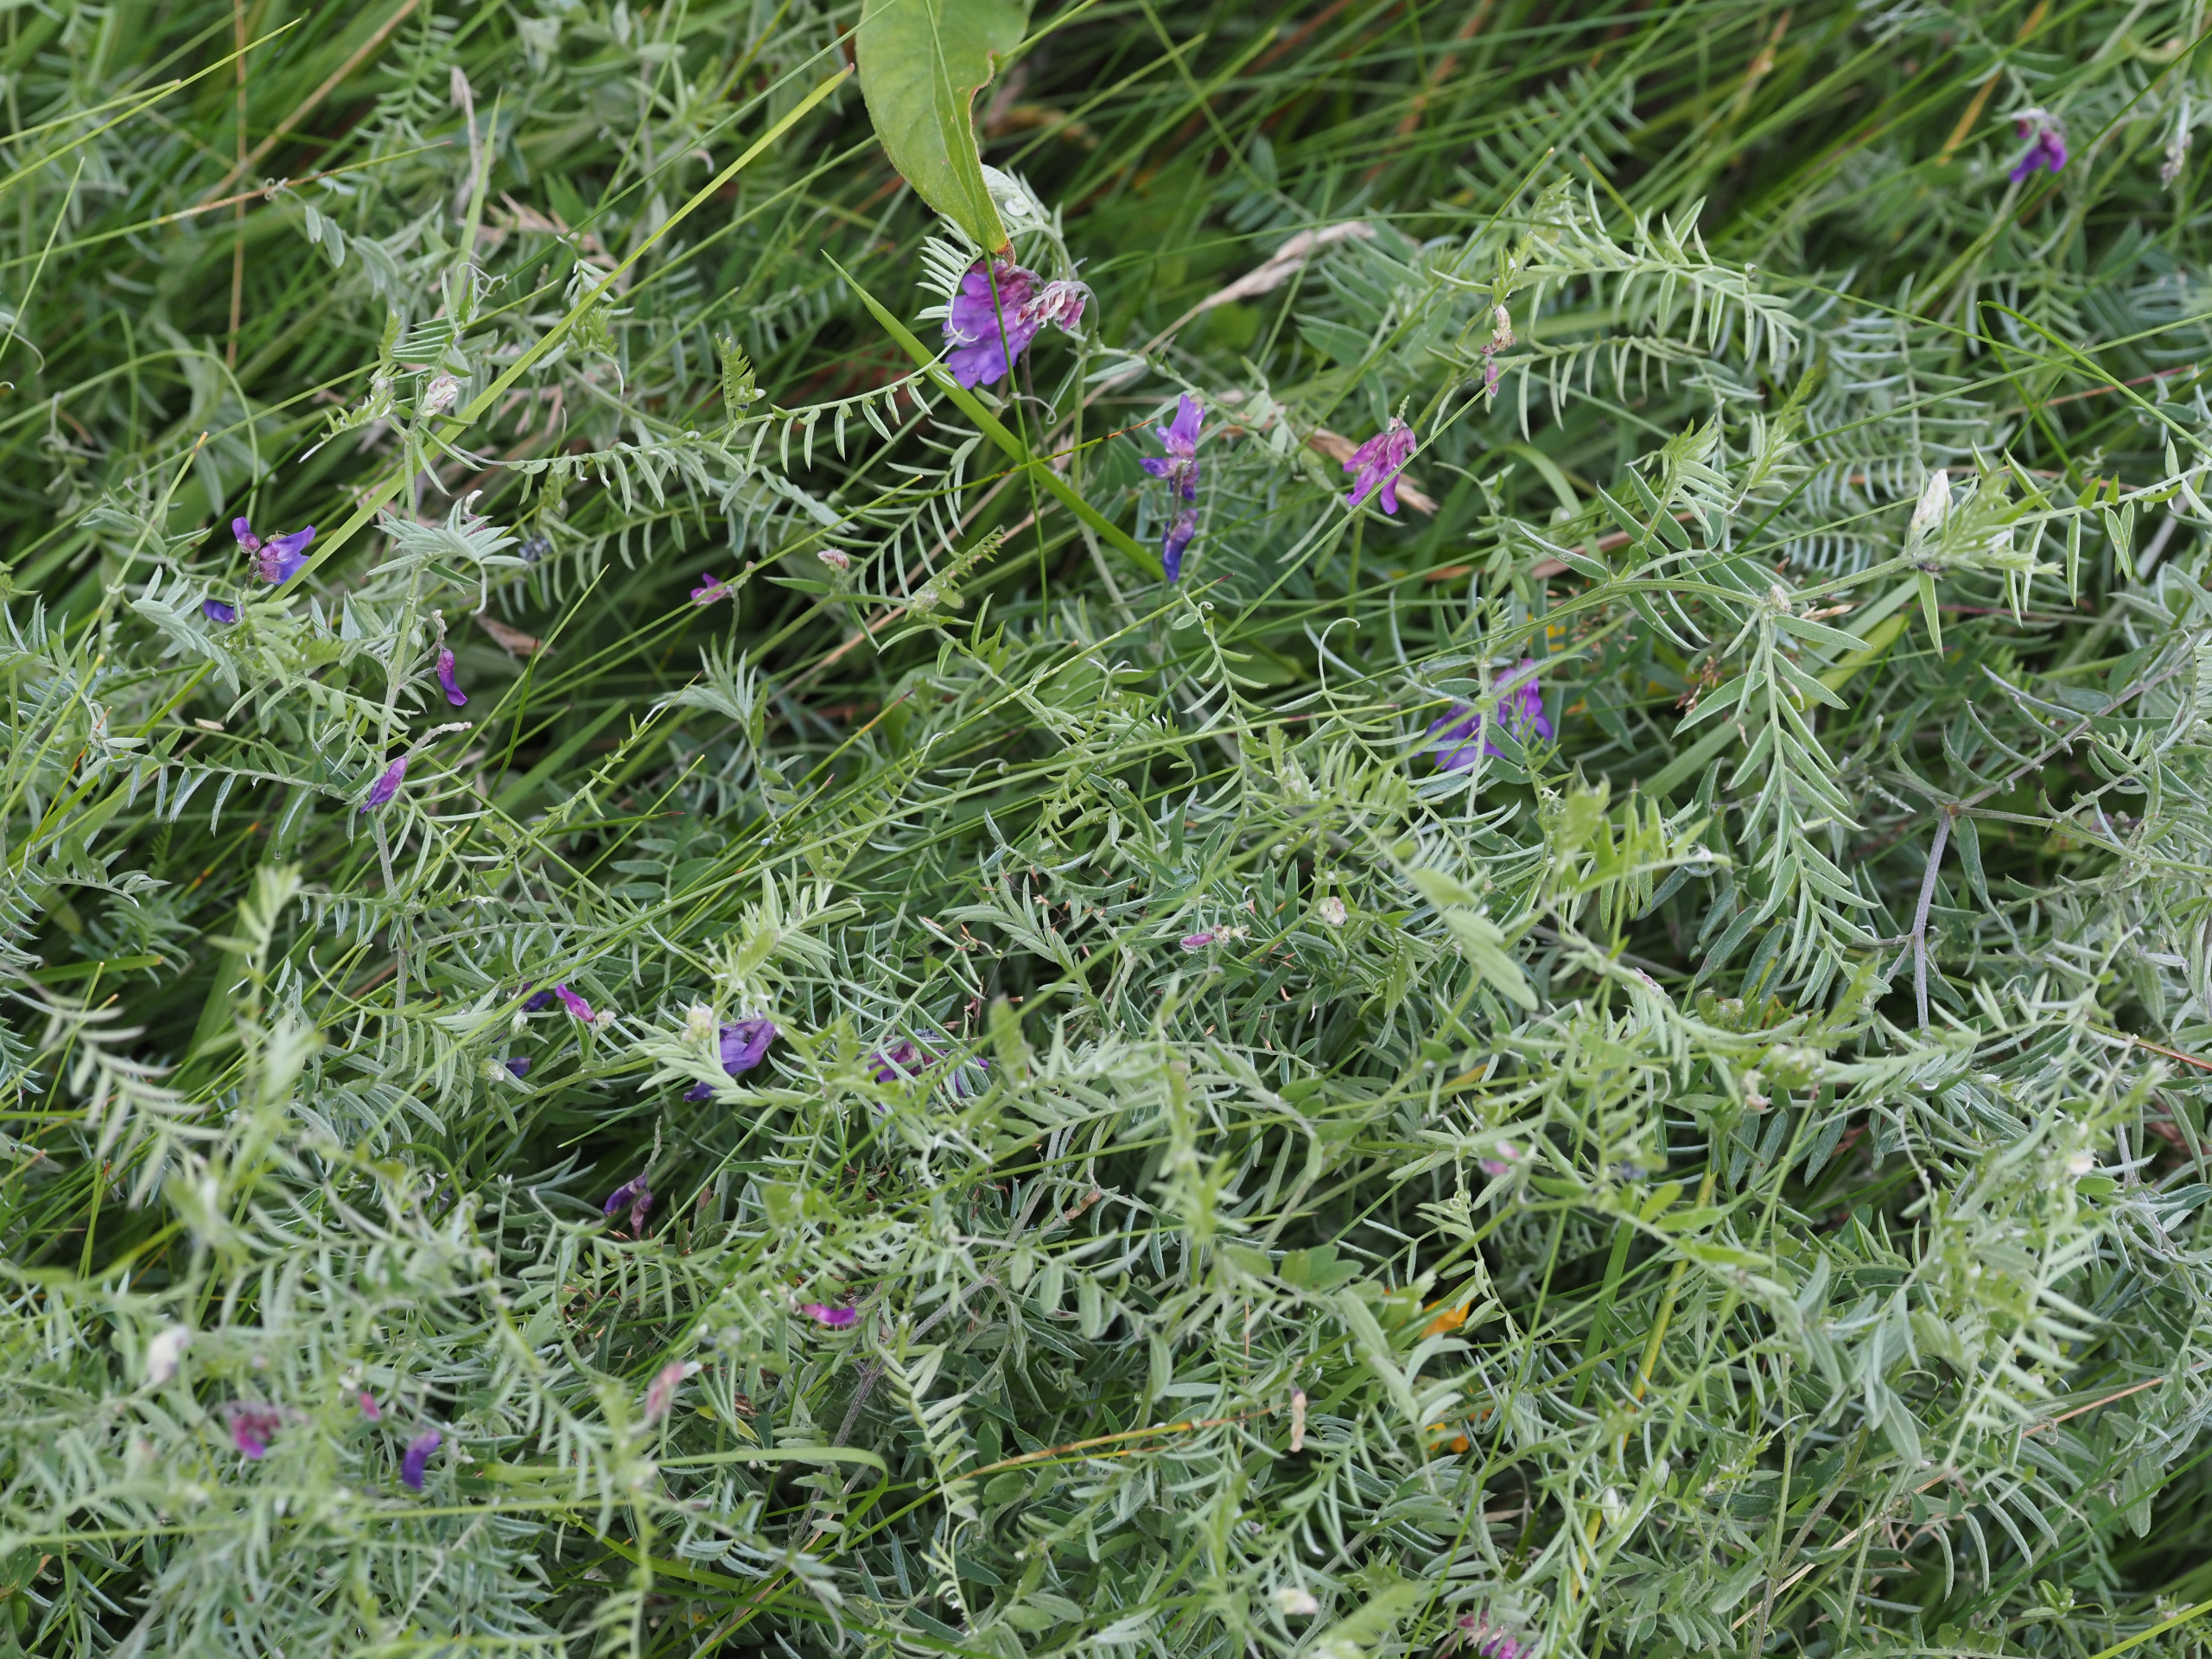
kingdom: Plantae
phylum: Tracheophyta
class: Magnoliopsida
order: Fabales
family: Fabaceae
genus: Vicia
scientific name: Vicia cracca
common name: Muse-vikke
